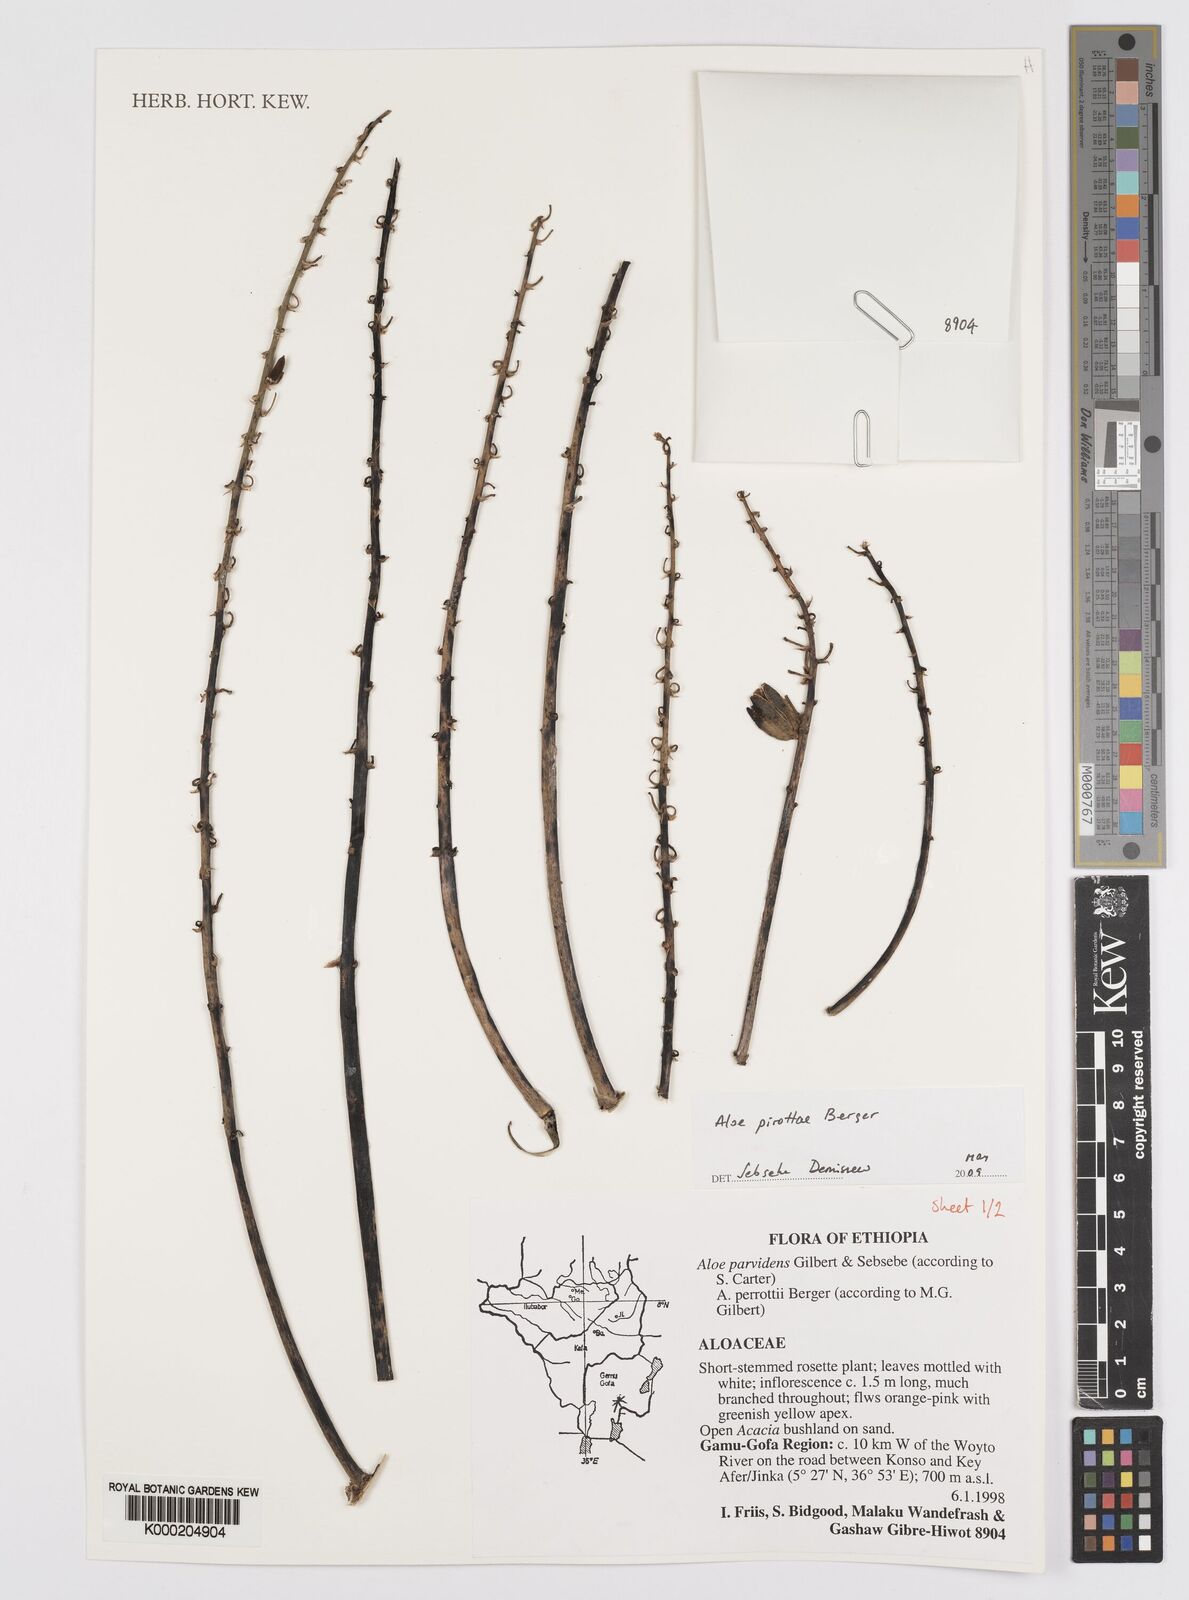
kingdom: Plantae
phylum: Tracheophyta
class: Liliopsida
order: Asparagales
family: Asphodelaceae
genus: Aloe
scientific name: Aloe pirottae
